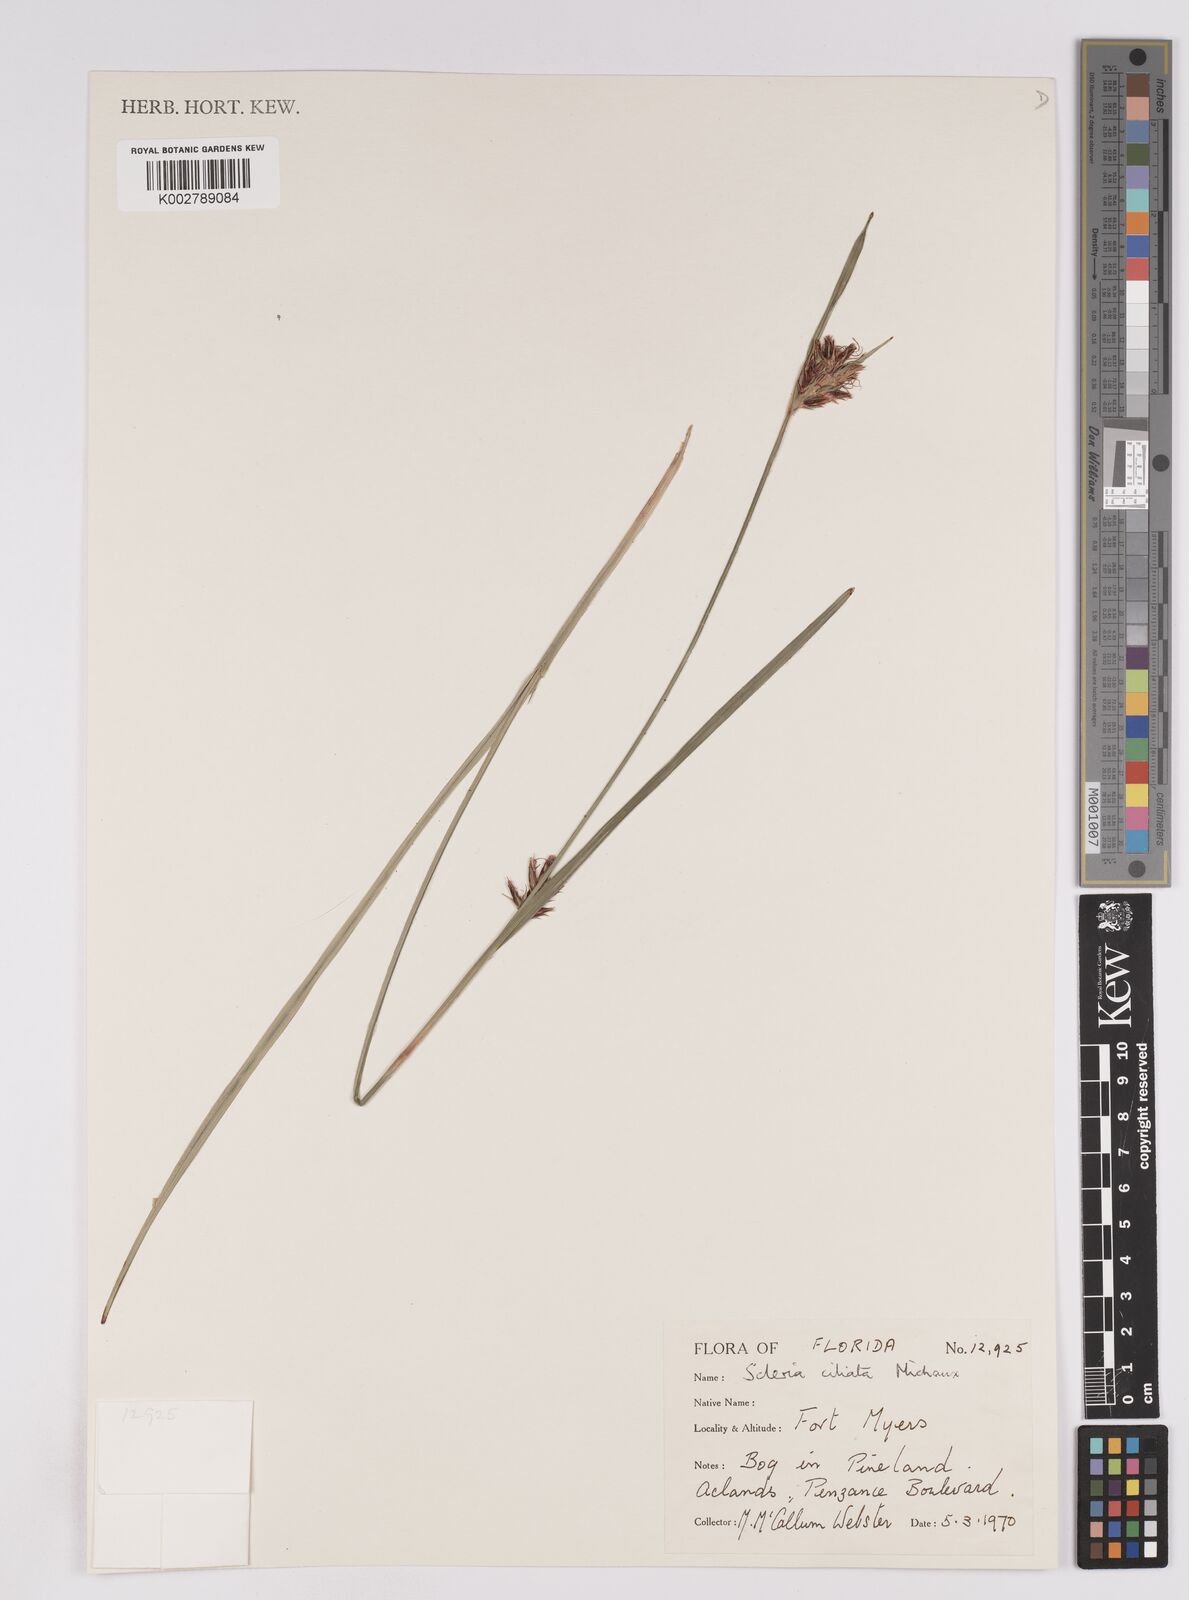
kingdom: Plantae
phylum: Tracheophyta
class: Liliopsida
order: Poales
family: Cyperaceae
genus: Scleria
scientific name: Scleria ciliata
